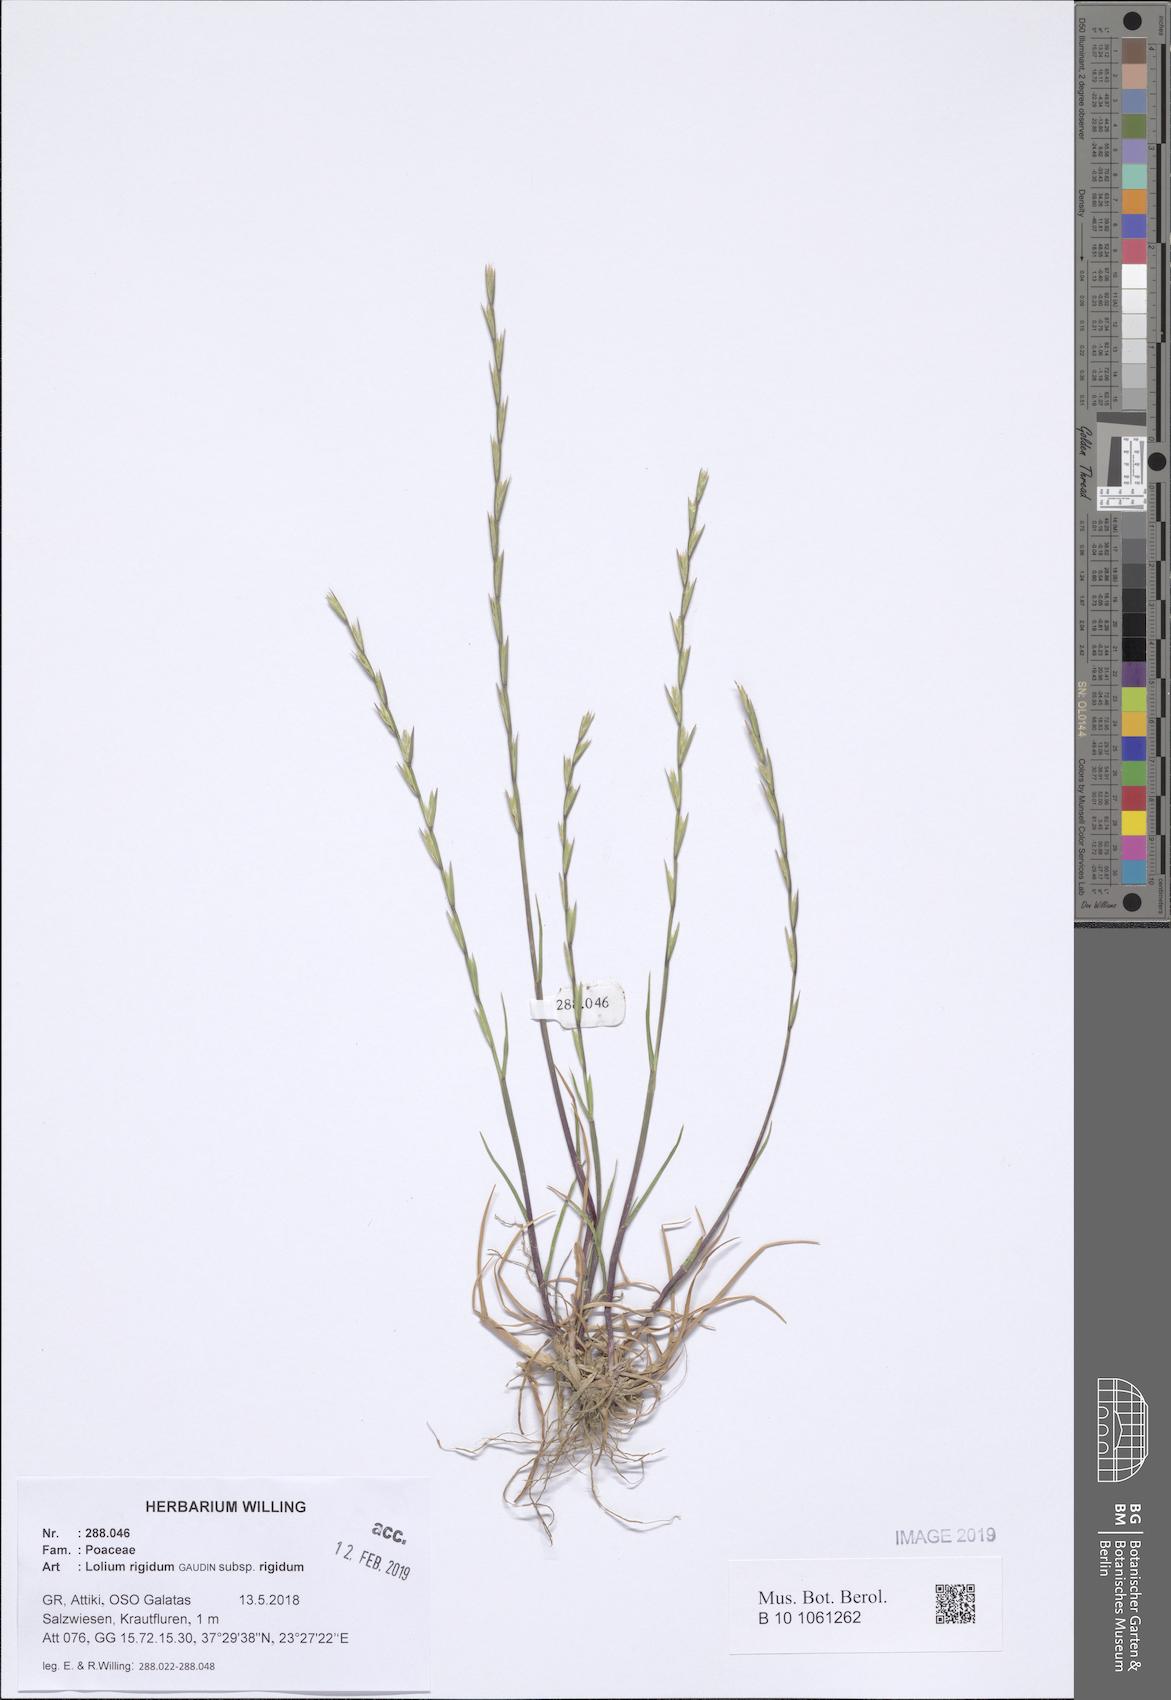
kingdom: Plantae
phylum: Tracheophyta
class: Liliopsida
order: Poales
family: Poaceae
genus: Lolium
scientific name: Lolium rigidum
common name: Wimmera ryegrass
